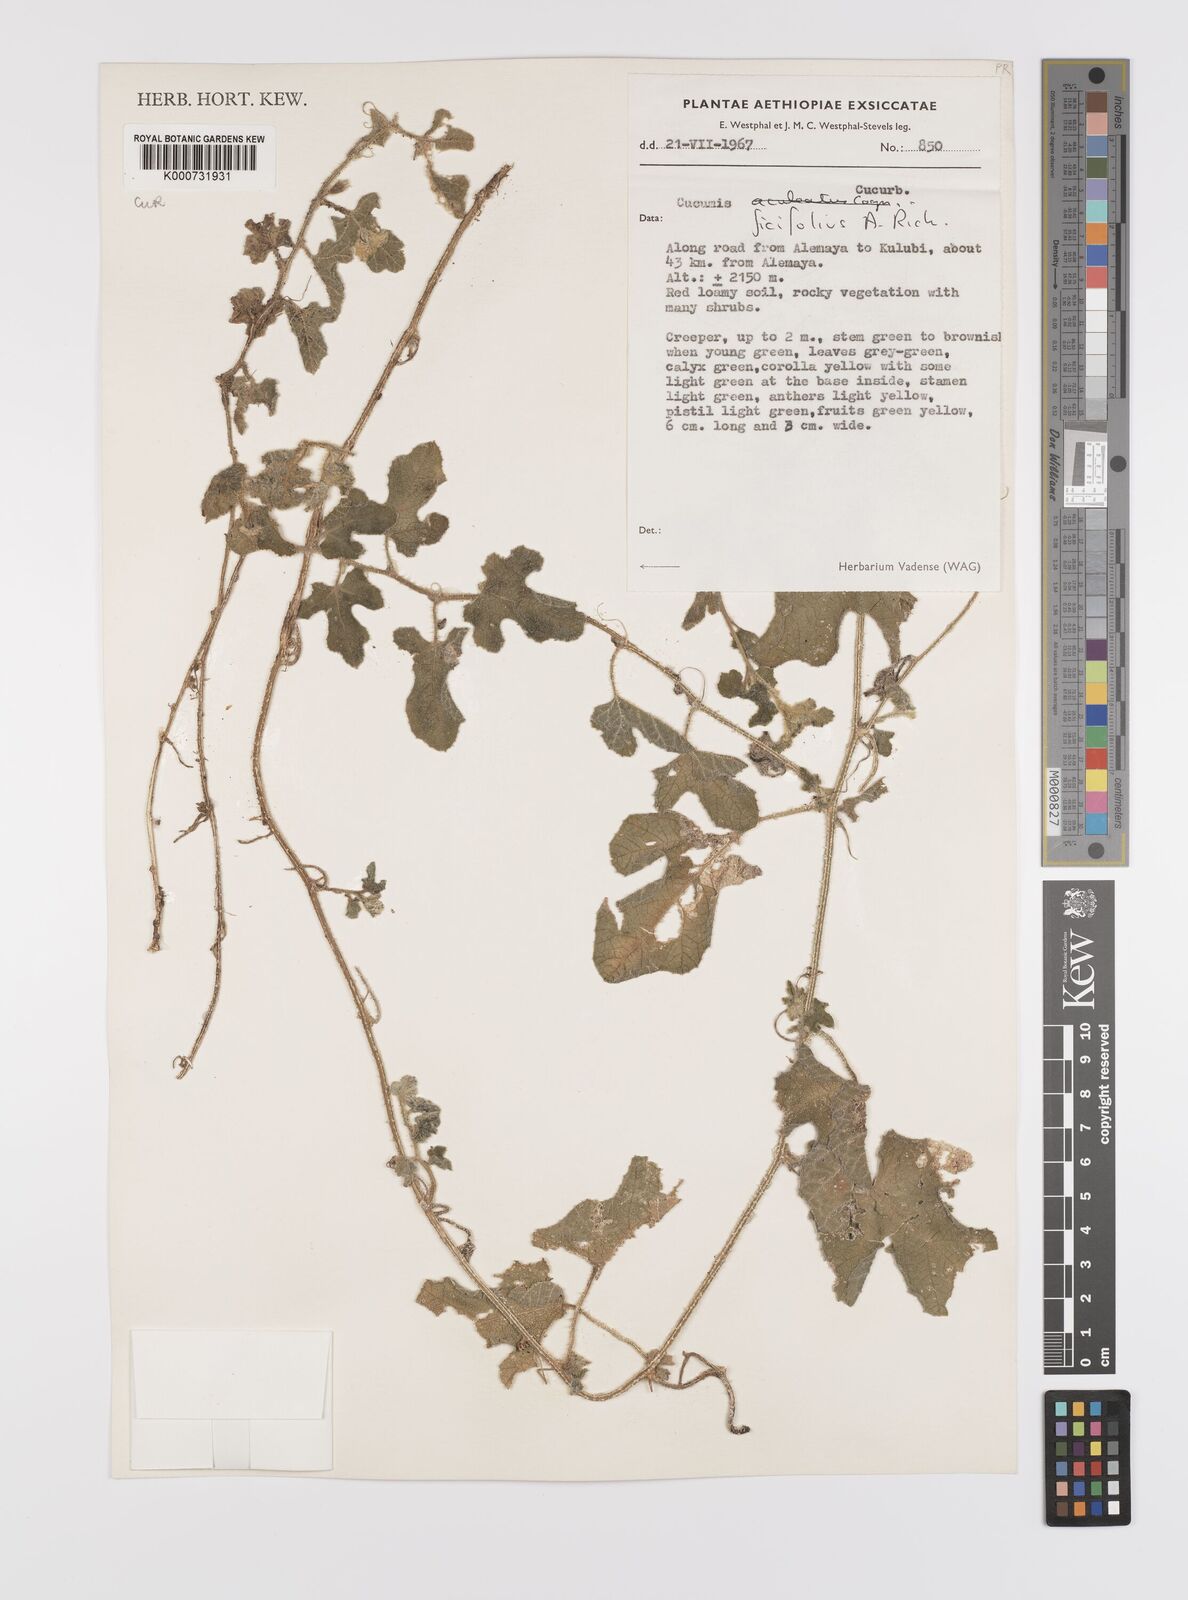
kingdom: Plantae
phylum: Tracheophyta
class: Magnoliopsida
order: Cucurbitales
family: Cucurbitaceae
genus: Cucumis
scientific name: Cucumis ficifolius
